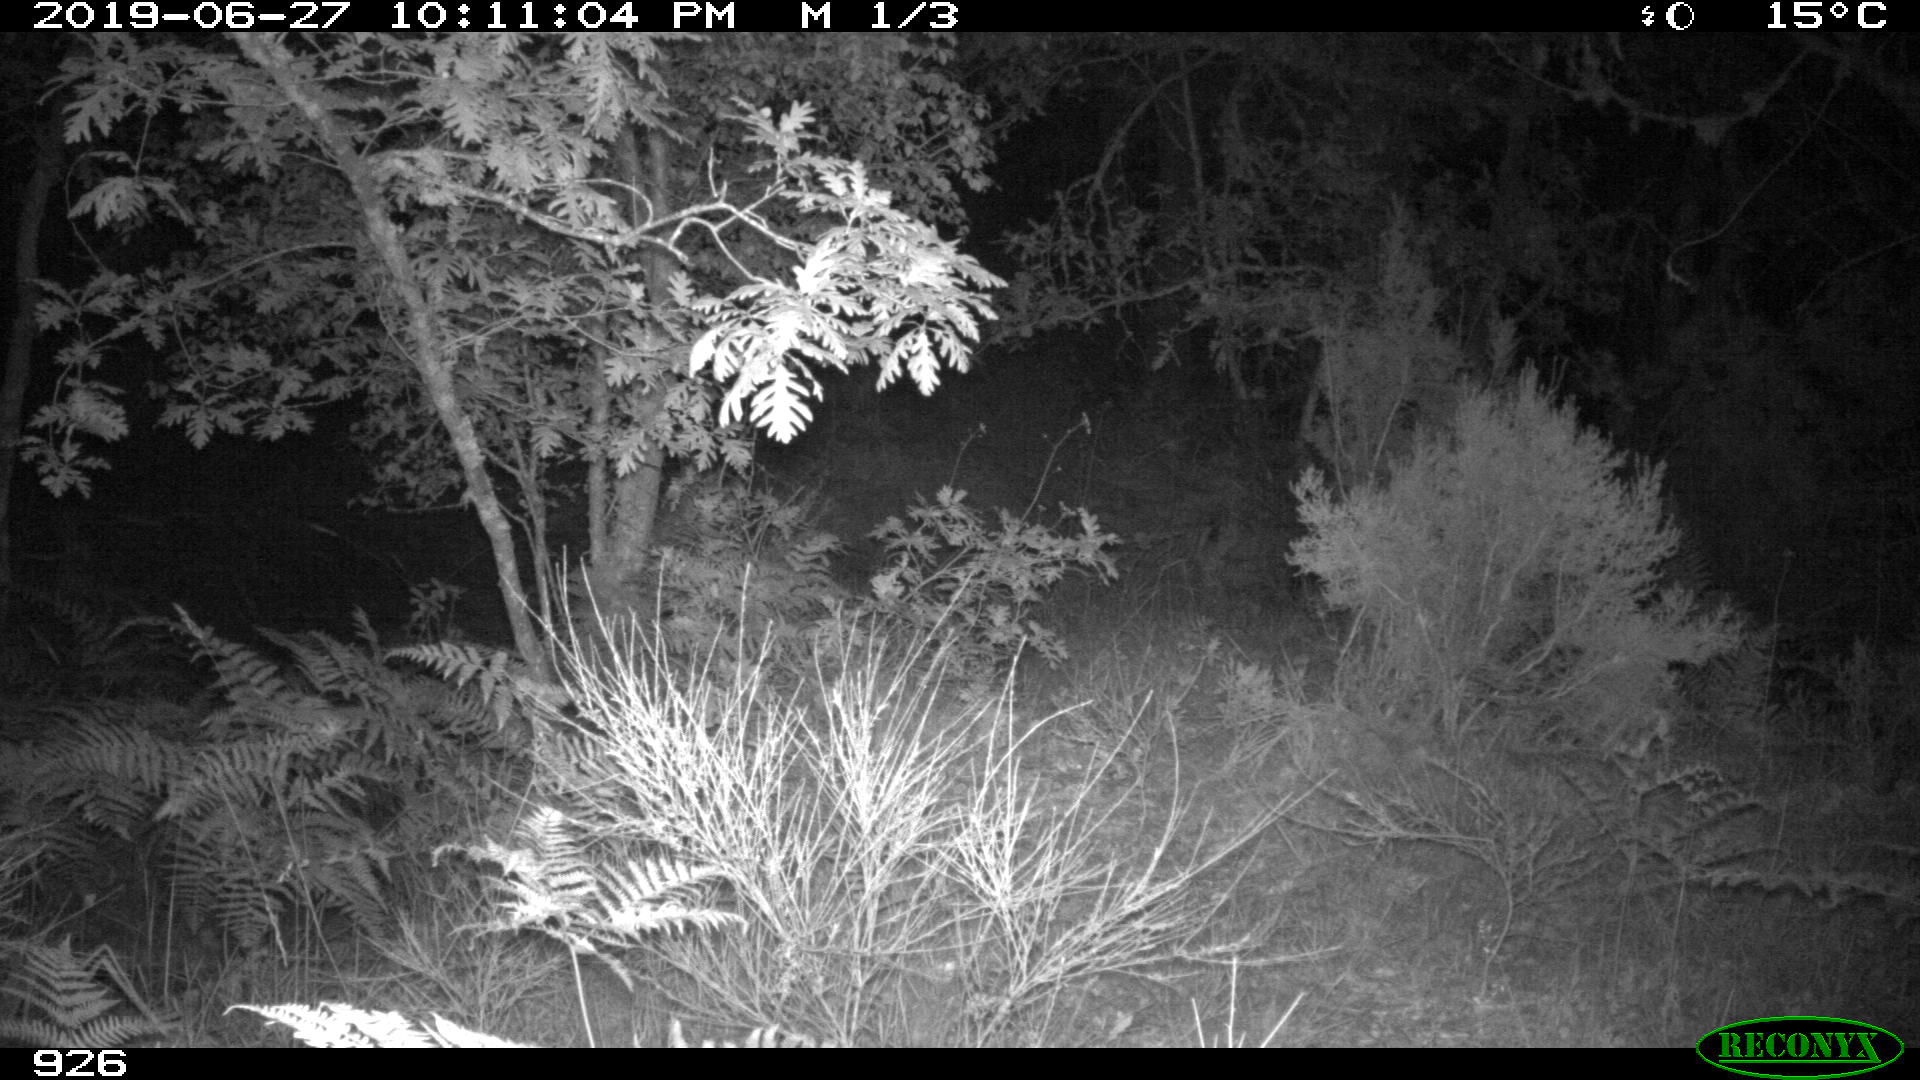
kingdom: Animalia
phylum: Chordata
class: Mammalia
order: Artiodactyla
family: Cervidae
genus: Capreolus
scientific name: Capreolus capreolus
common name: Western roe deer
